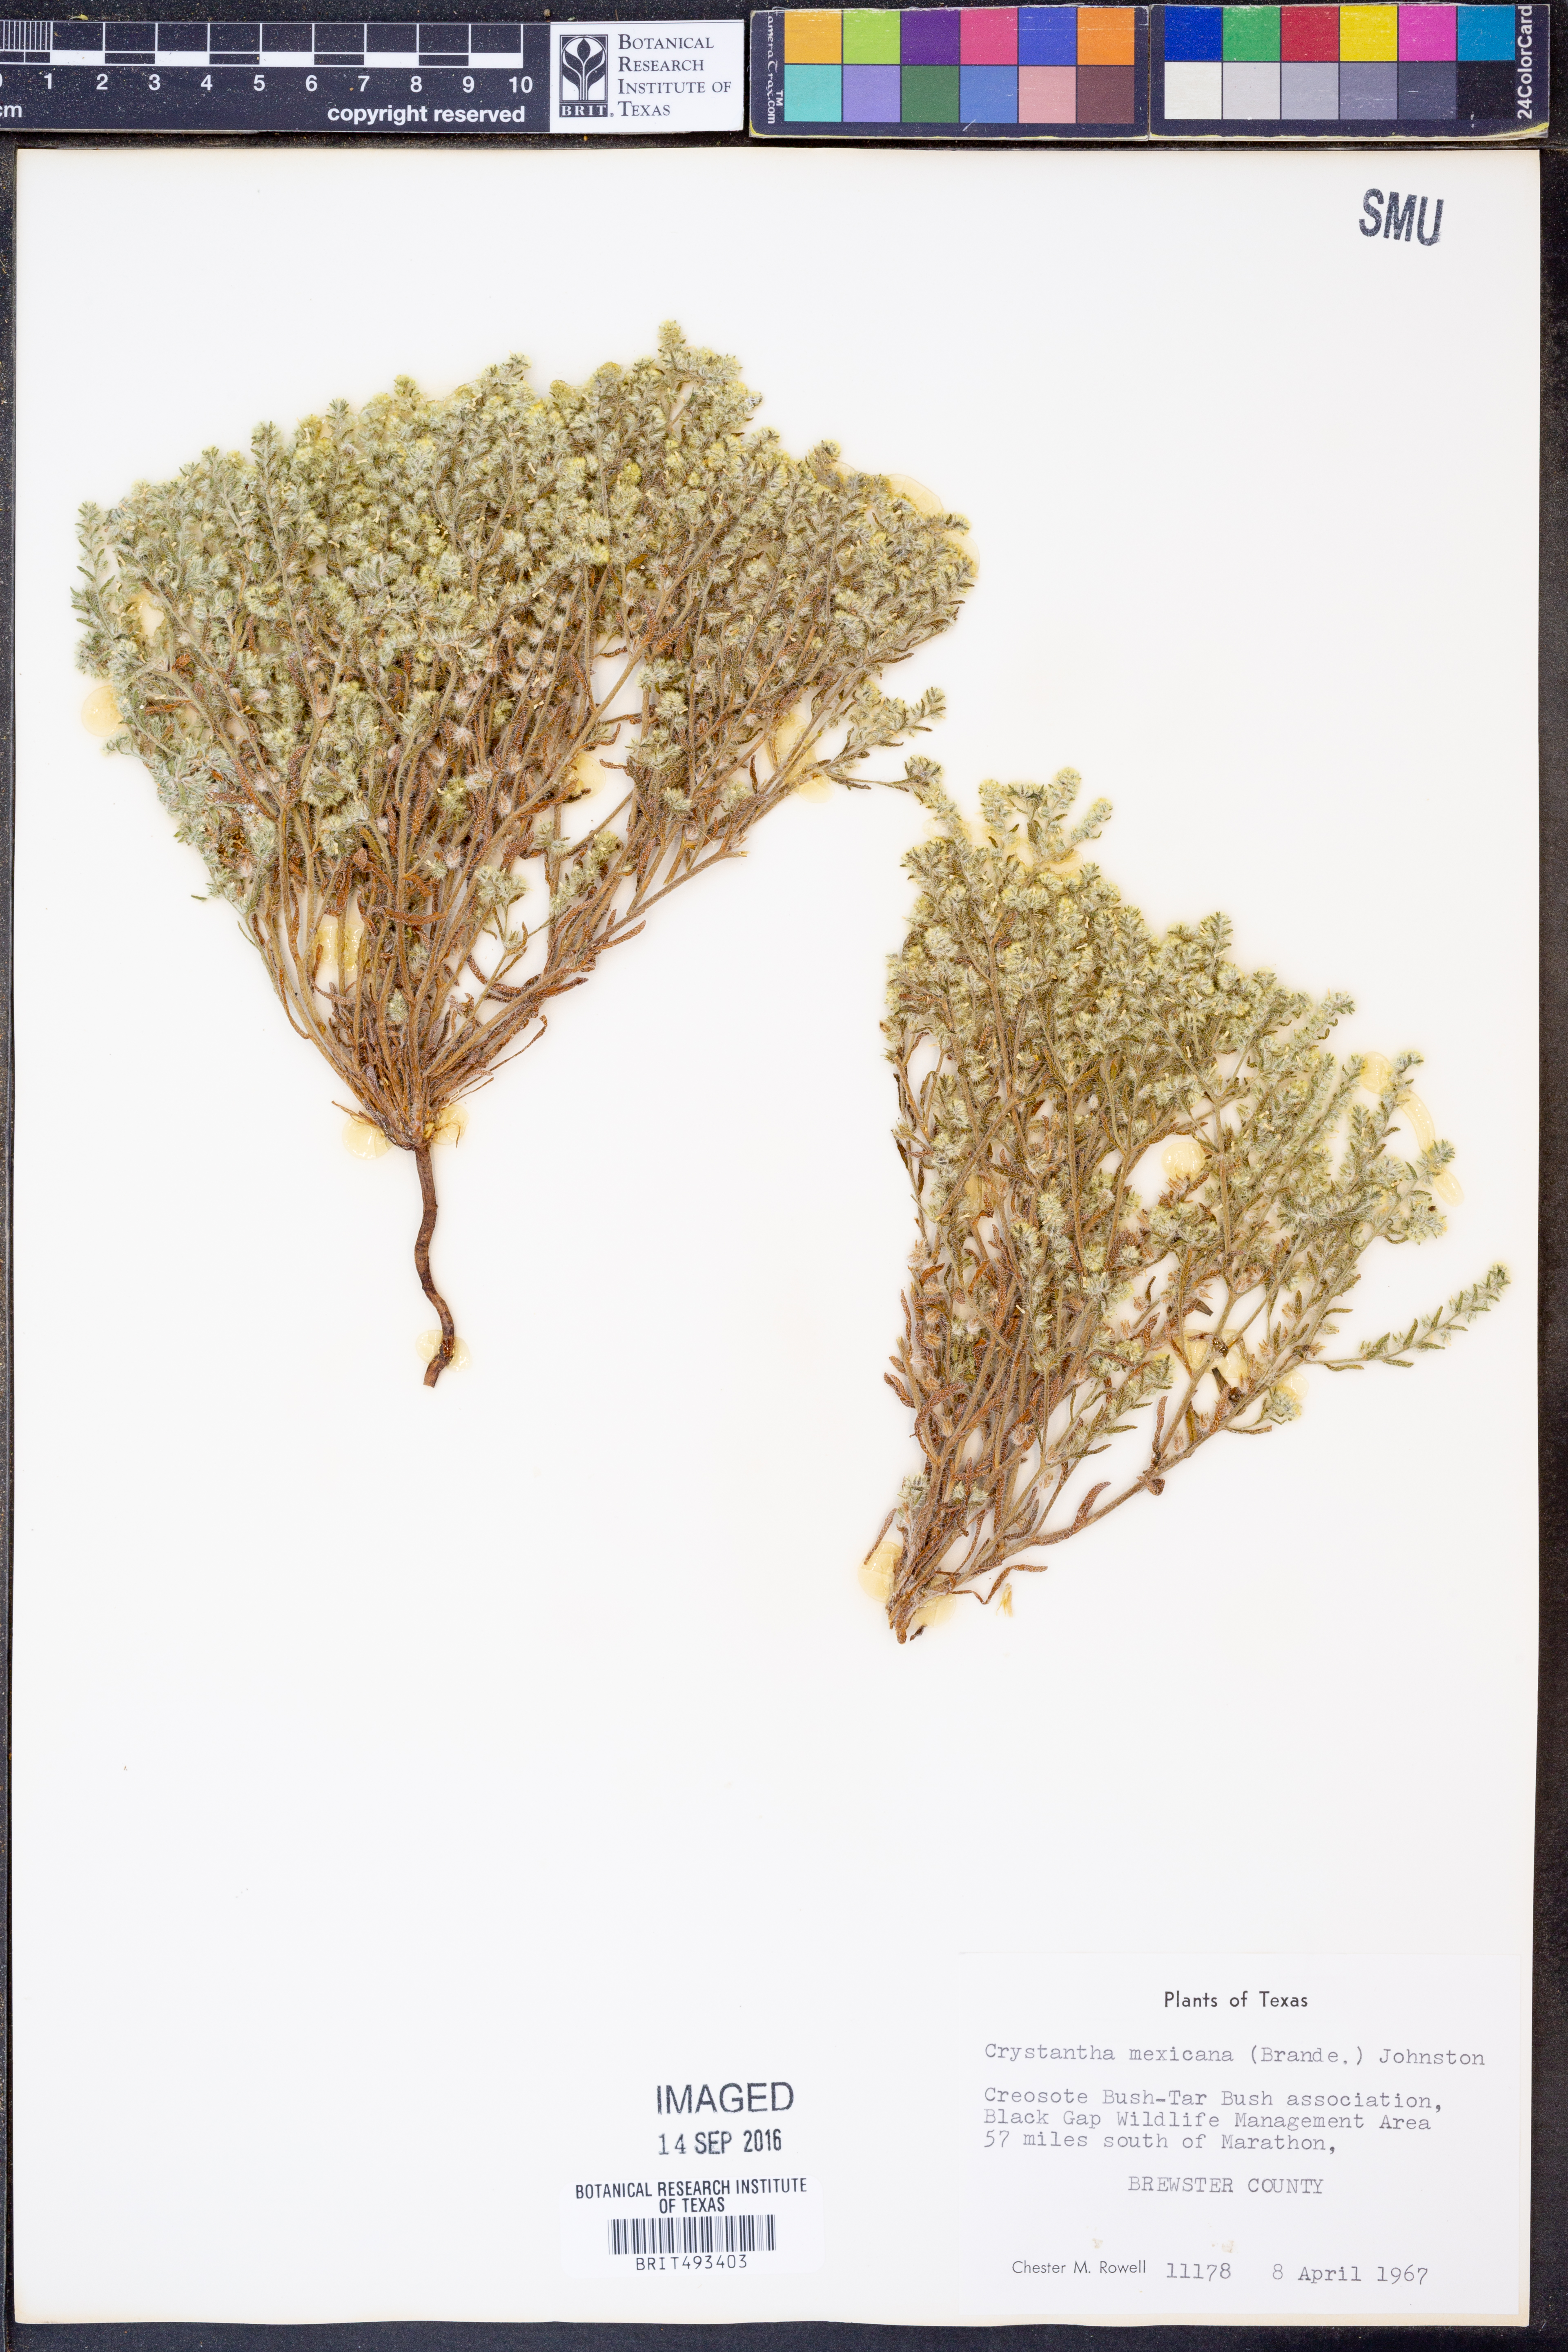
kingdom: Plantae
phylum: Tracheophyta
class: Magnoliopsida
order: Boraginales
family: Boraginaceae
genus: Johnstonella
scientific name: Johnstonella mexicana
